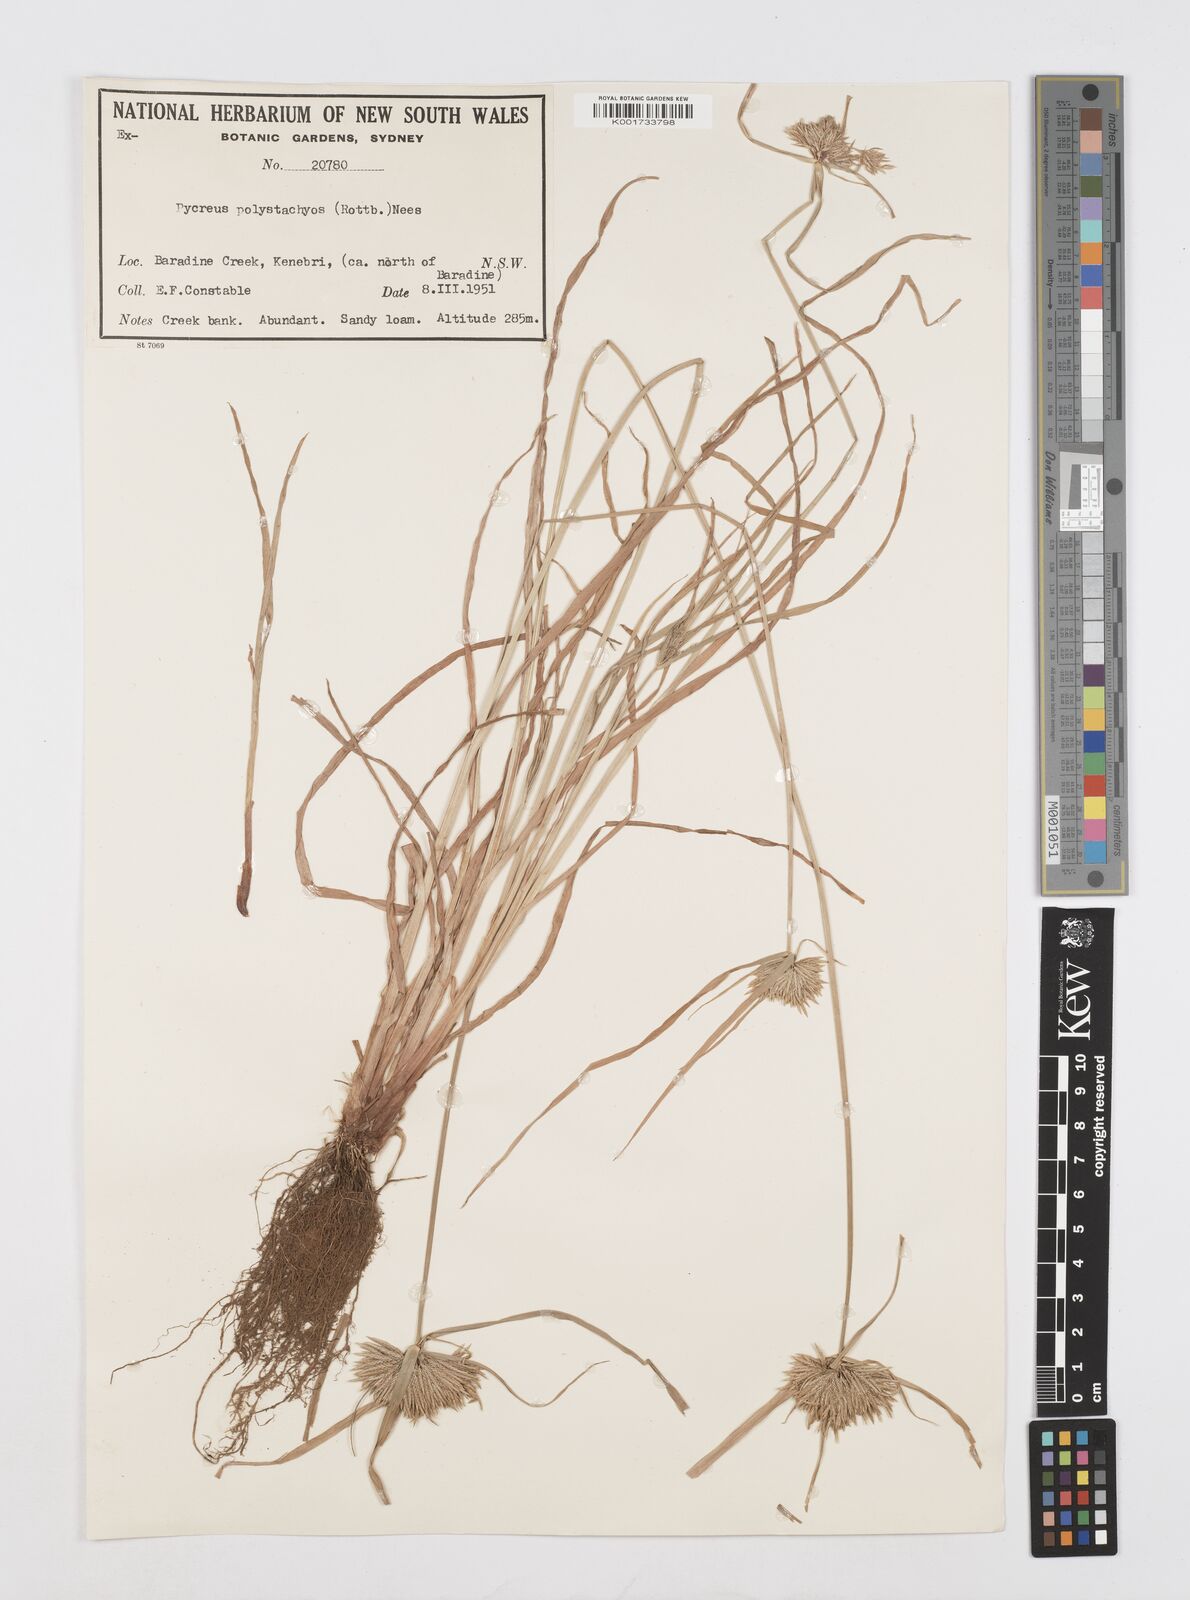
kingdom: Plantae
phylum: Tracheophyta
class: Liliopsida
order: Poales
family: Cyperaceae
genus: Cyperus
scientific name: Cyperus polystachyos
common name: Bunchy flat sedge
